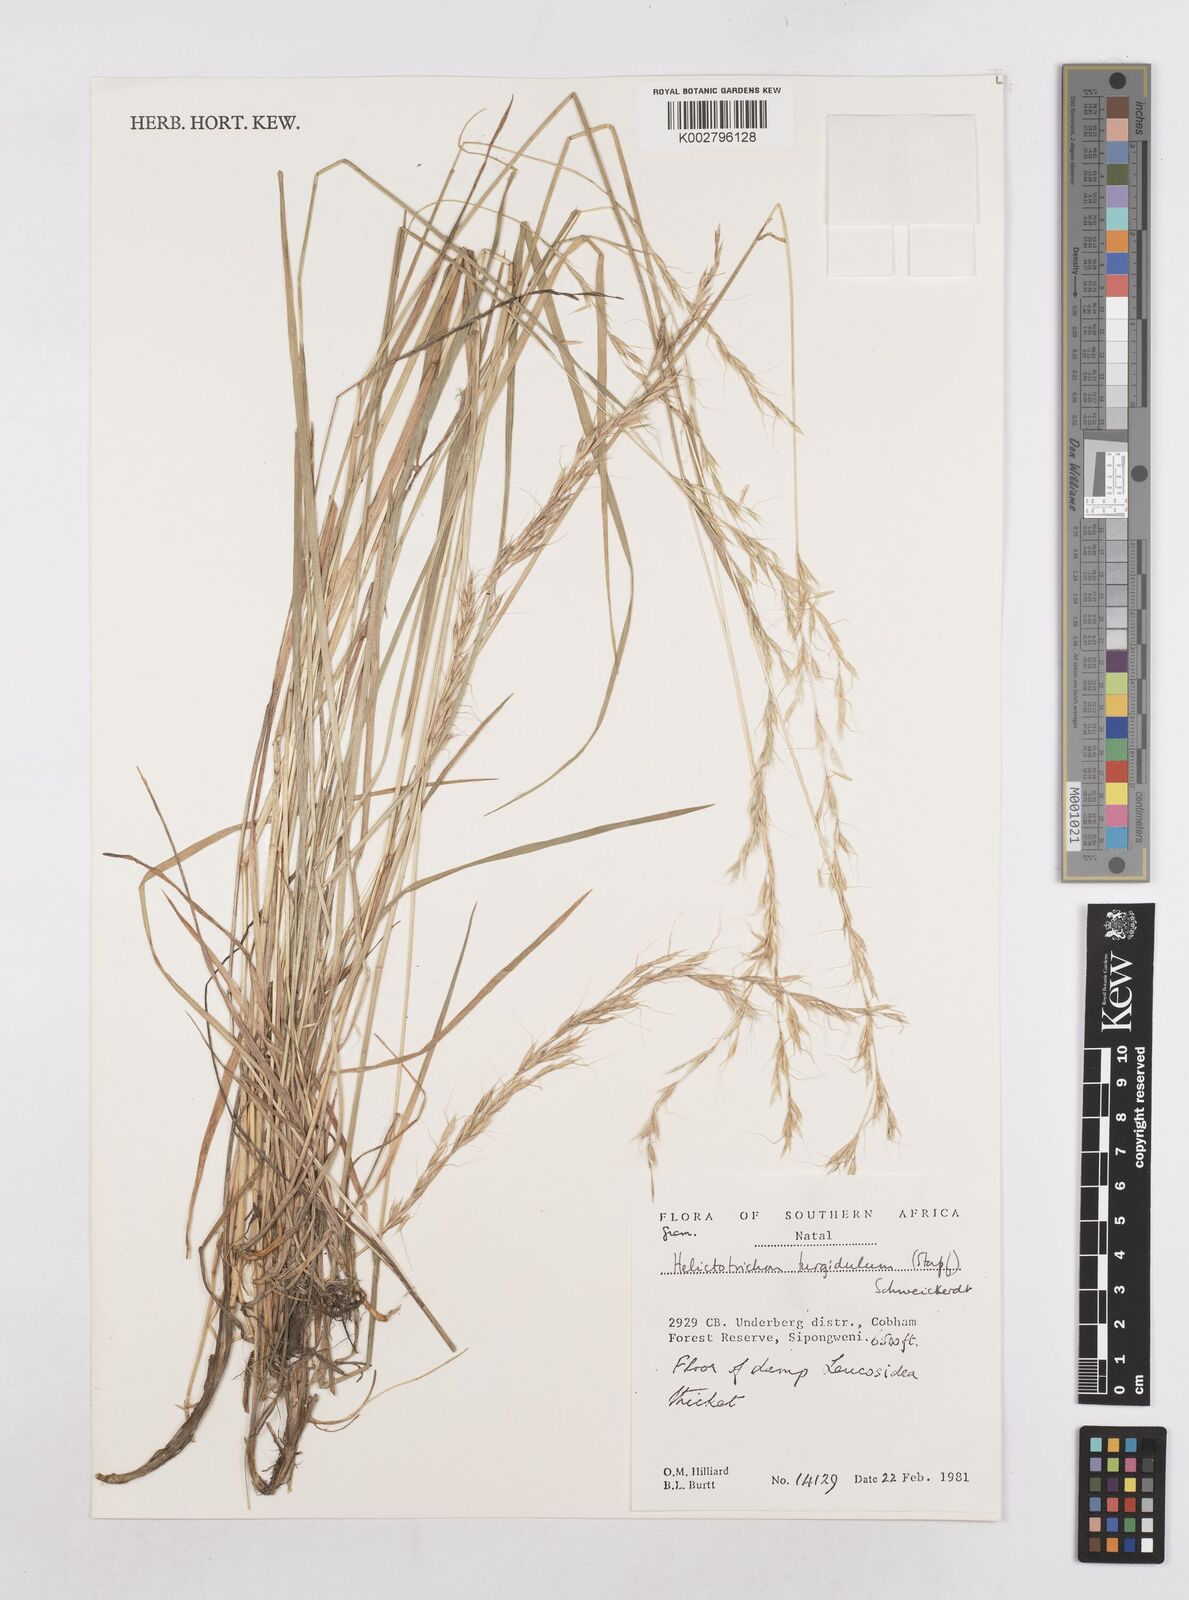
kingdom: Plantae
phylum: Tracheophyta
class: Liliopsida
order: Poales
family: Poaceae
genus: Trisetopsis
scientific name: Trisetopsis imberbis
